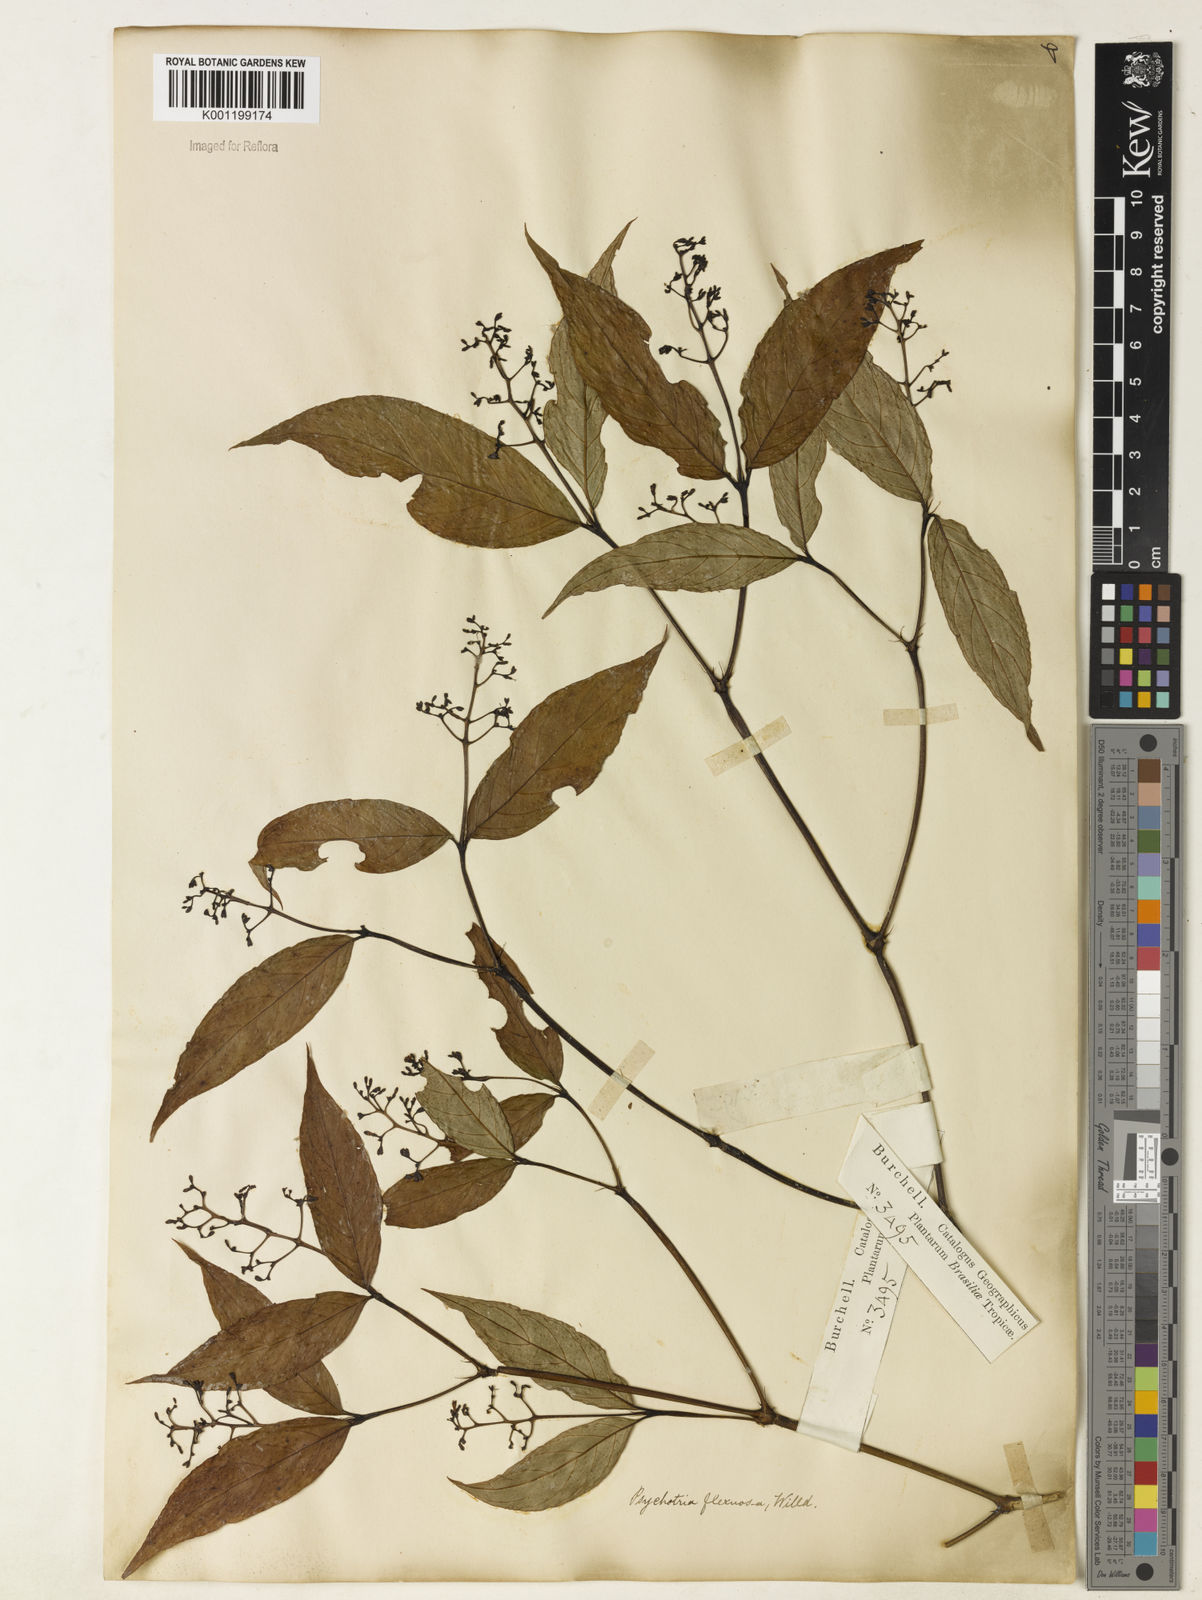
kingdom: Plantae
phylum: Tracheophyta
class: Magnoliopsida
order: Gentianales
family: Rubiaceae
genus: Palicourea
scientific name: Palicourea deflexa
